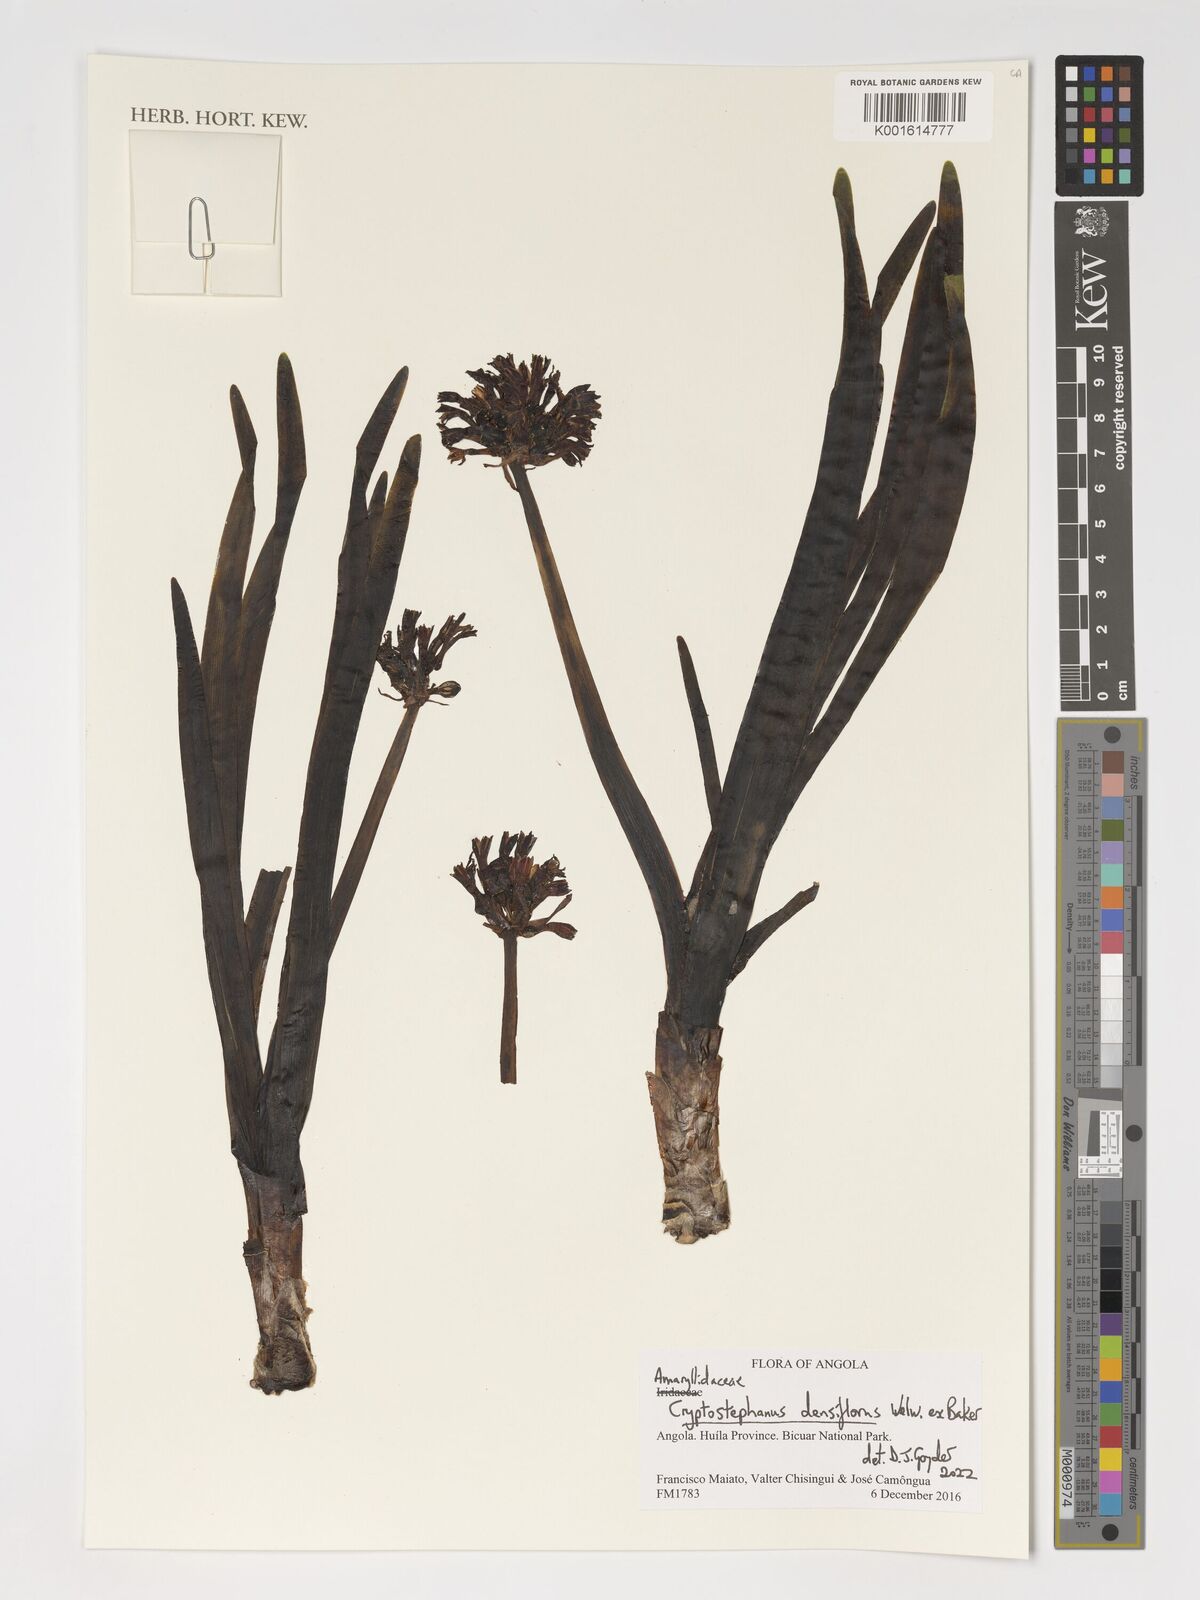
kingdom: Plantae
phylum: Tracheophyta
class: Liliopsida
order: Asparagales
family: Amaryllidaceae
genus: Cryptostephanus
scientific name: Cryptostephanus densiflorus
